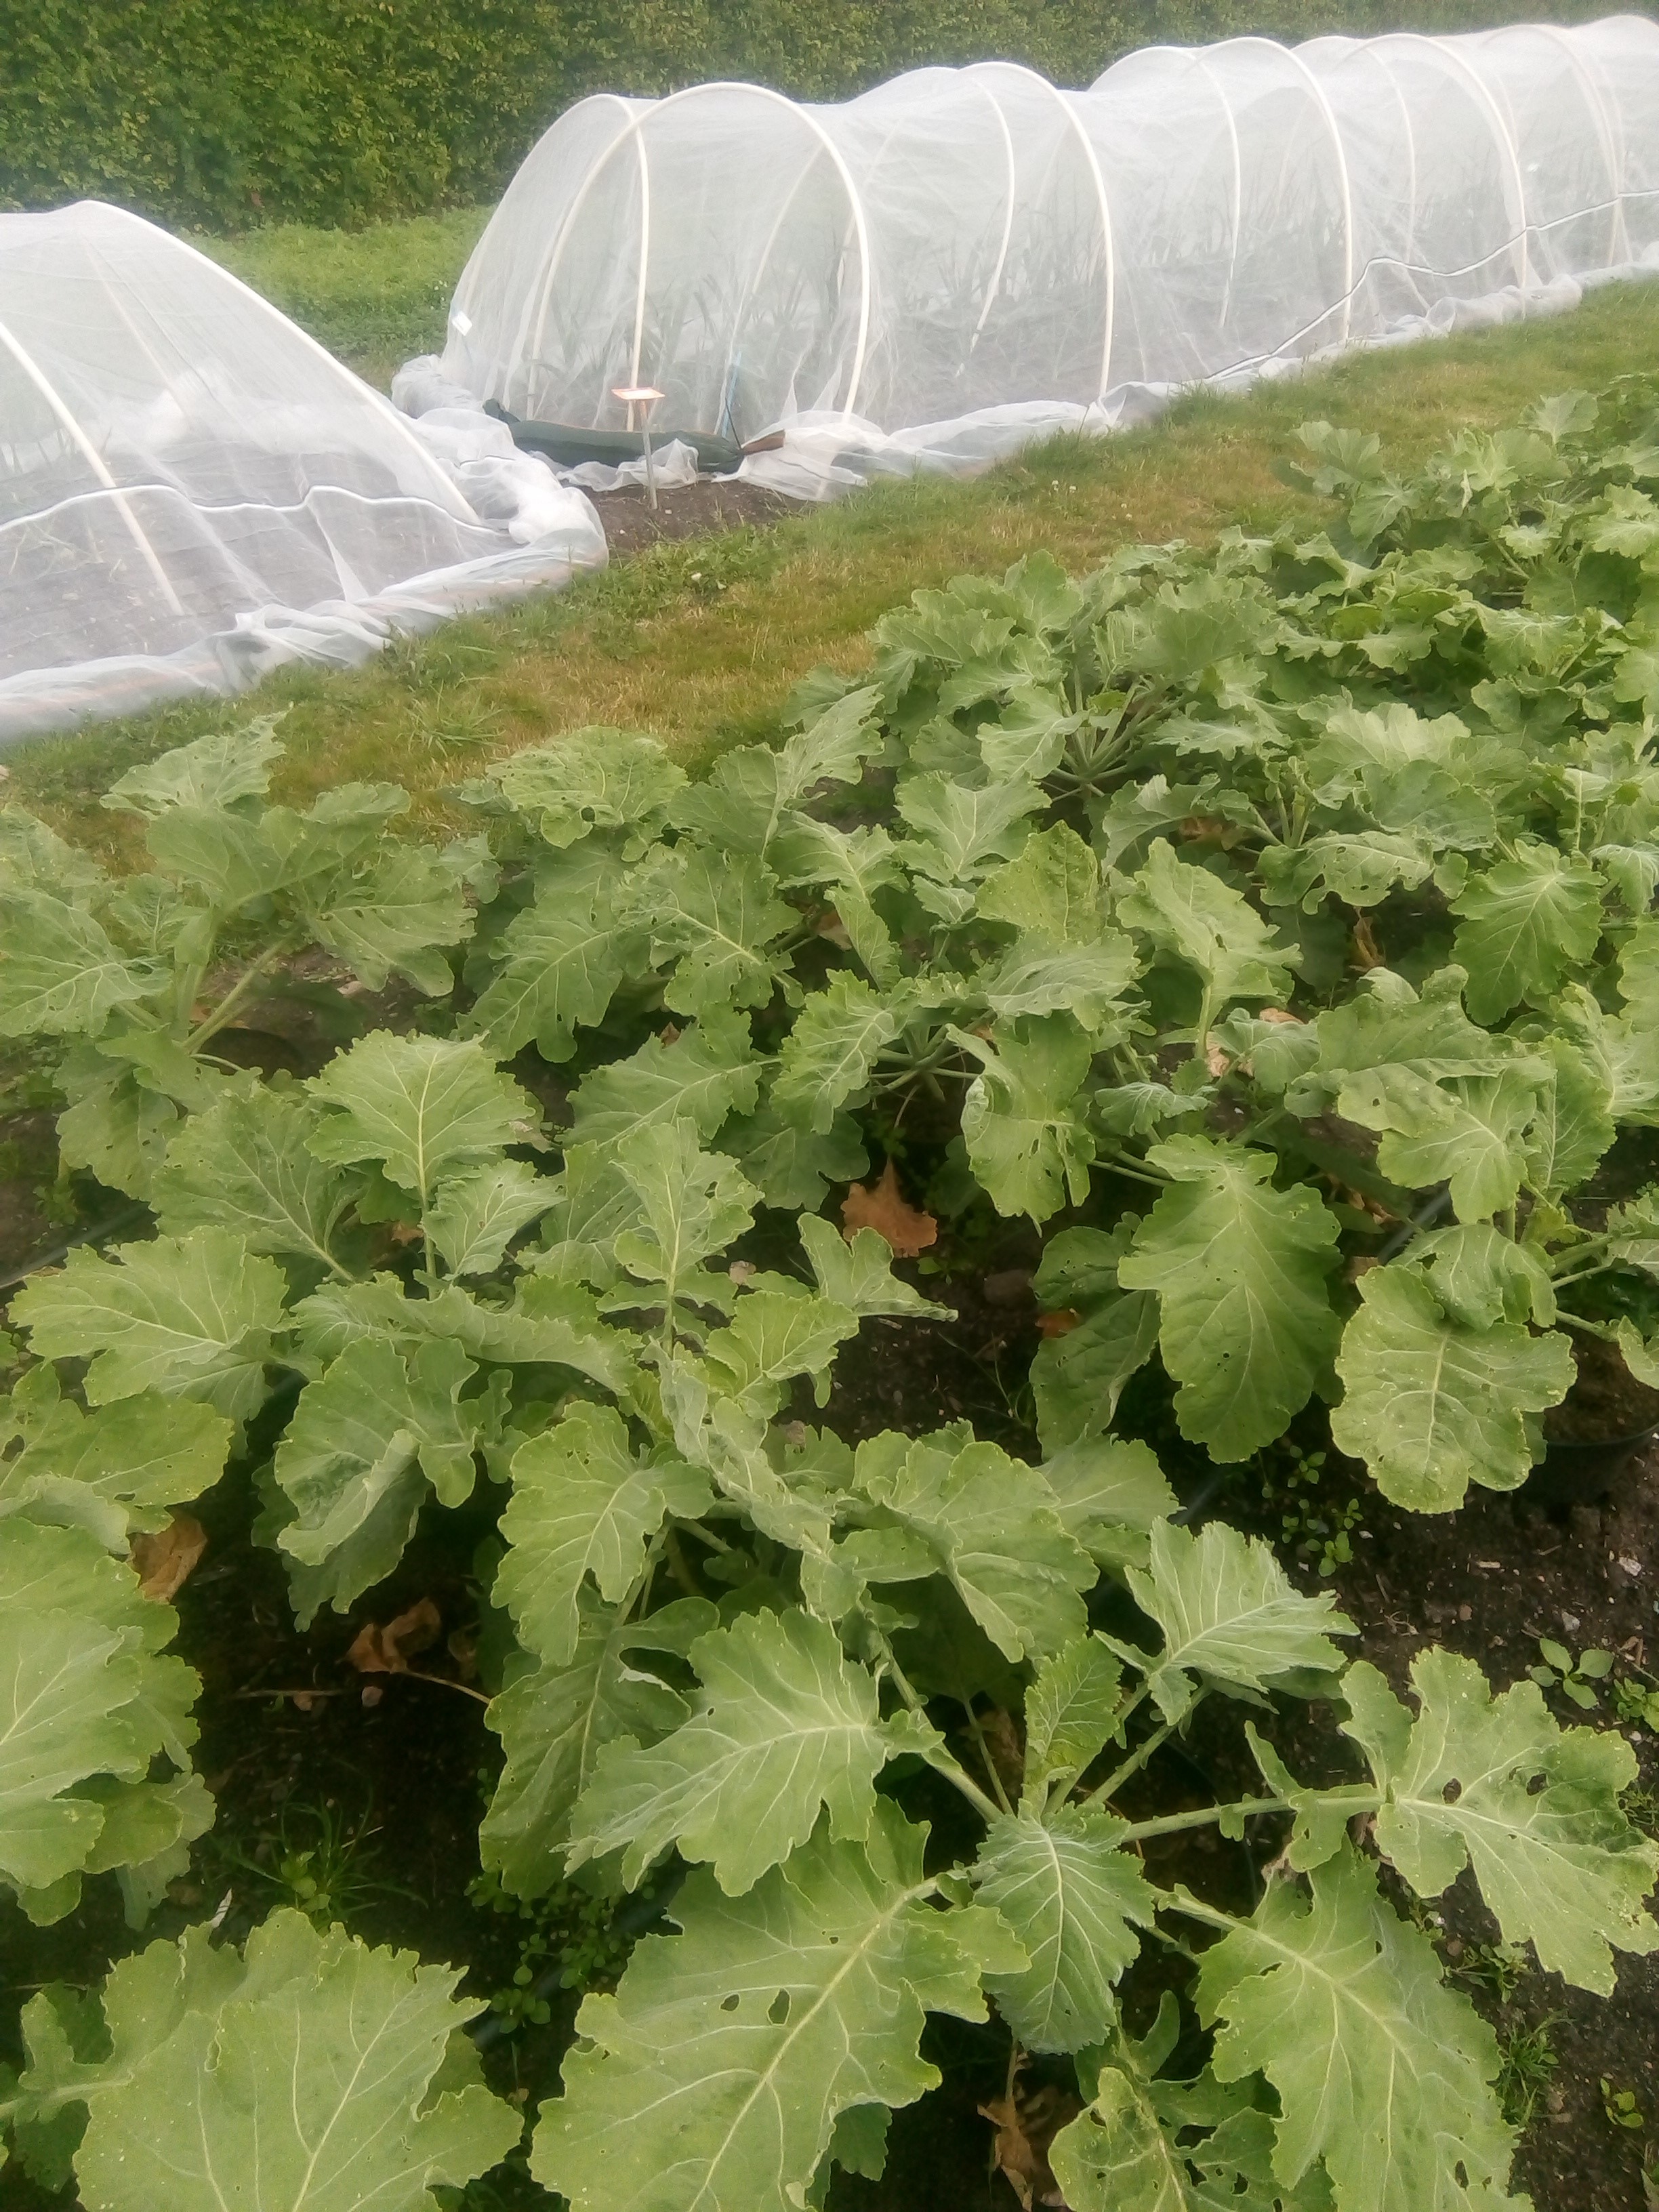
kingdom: Plantae
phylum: Tracheophyta
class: Magnoliopsida
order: Brassicales
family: Brassicaceae
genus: Brassica
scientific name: Brassica villosa
